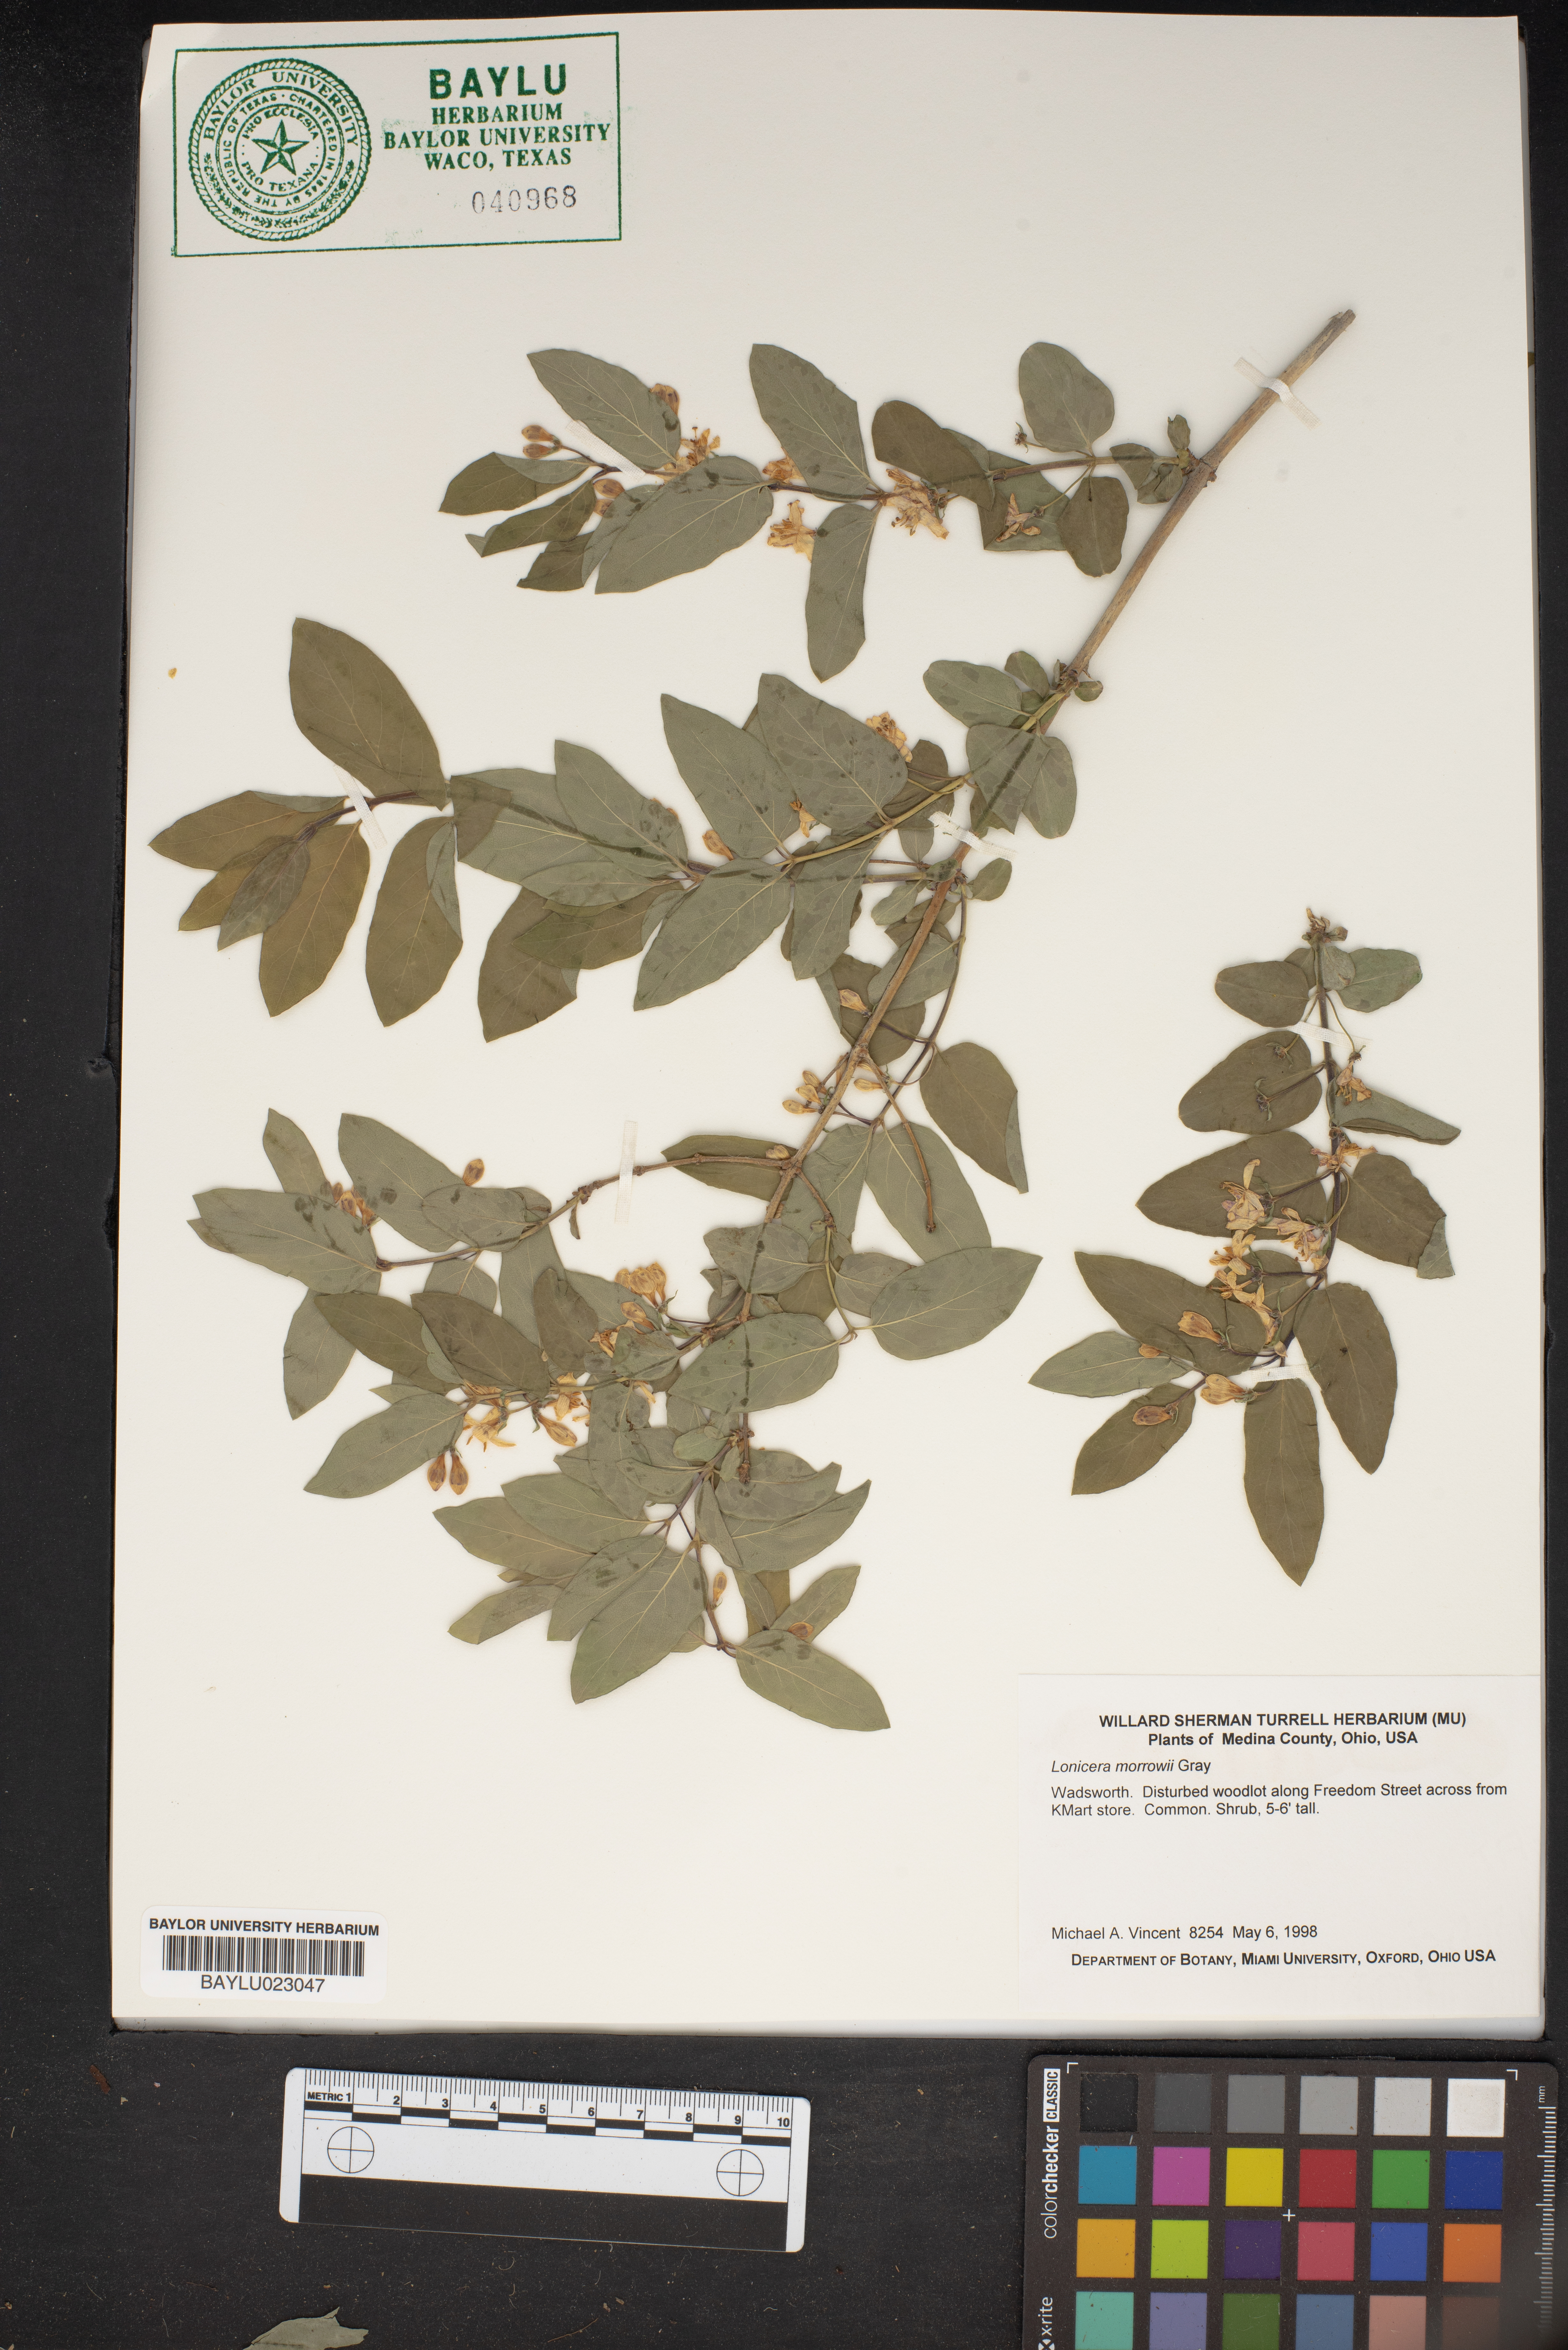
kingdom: Plantae
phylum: Tracheophyta
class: Magnoliopsida
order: Dipsacales
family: Caprifoliaceae
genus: Lonicera
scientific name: Lonicera morrowii
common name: Morrow's honeysuckle
